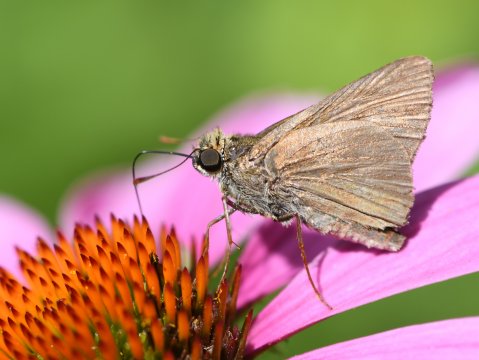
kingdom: Animalia
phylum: Arthropoda
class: Insecta
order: Lepidoptera
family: Hesperiidae
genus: Euphyes
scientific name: Euphyes vestris
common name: Dun Skipper
